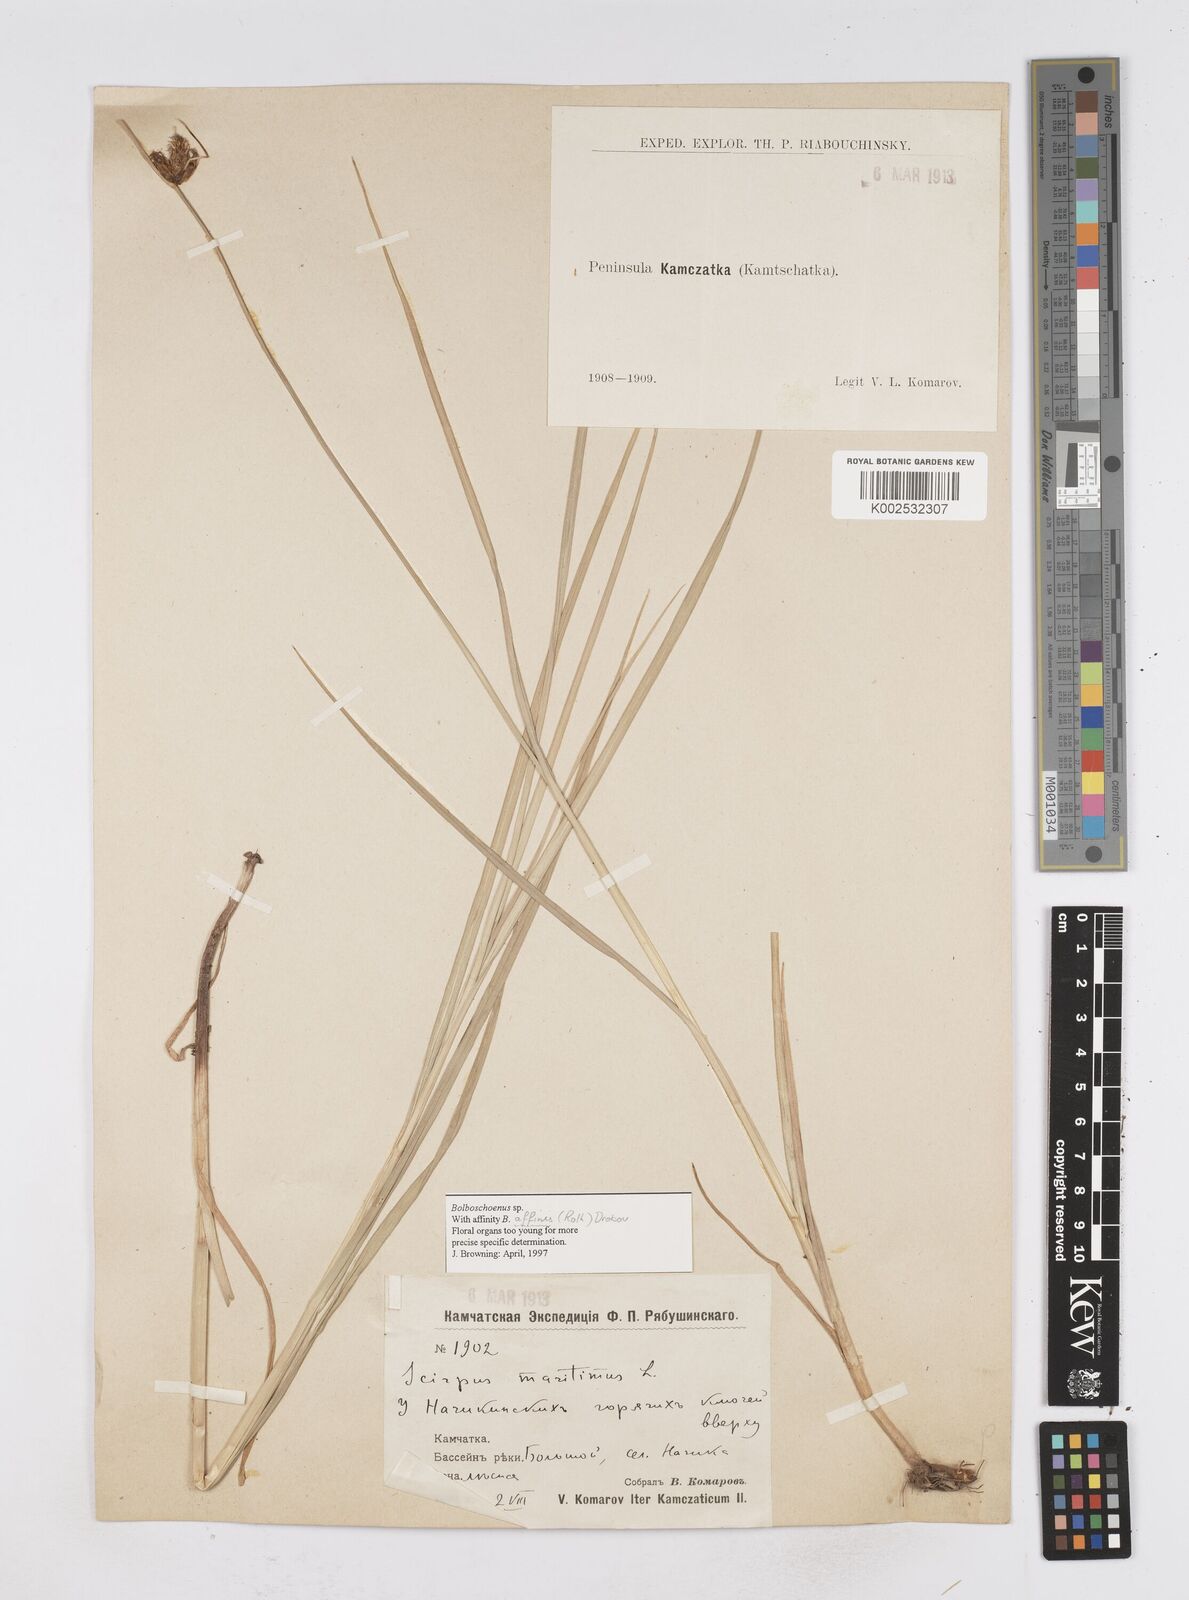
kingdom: Plantae
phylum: Tracheophyta
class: Liliopsida
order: Poales
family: Cyperaceae
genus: Bolboschoenus
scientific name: Bolboschoenus maritimus
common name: Sea club-rush
